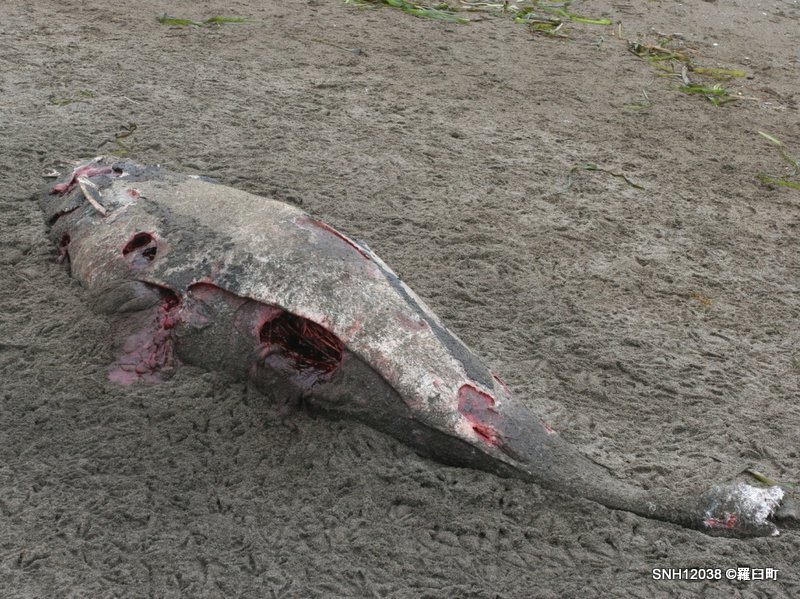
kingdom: Animalia
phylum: Chordata
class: Mammalia
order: Cetacea
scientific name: Cetacea
